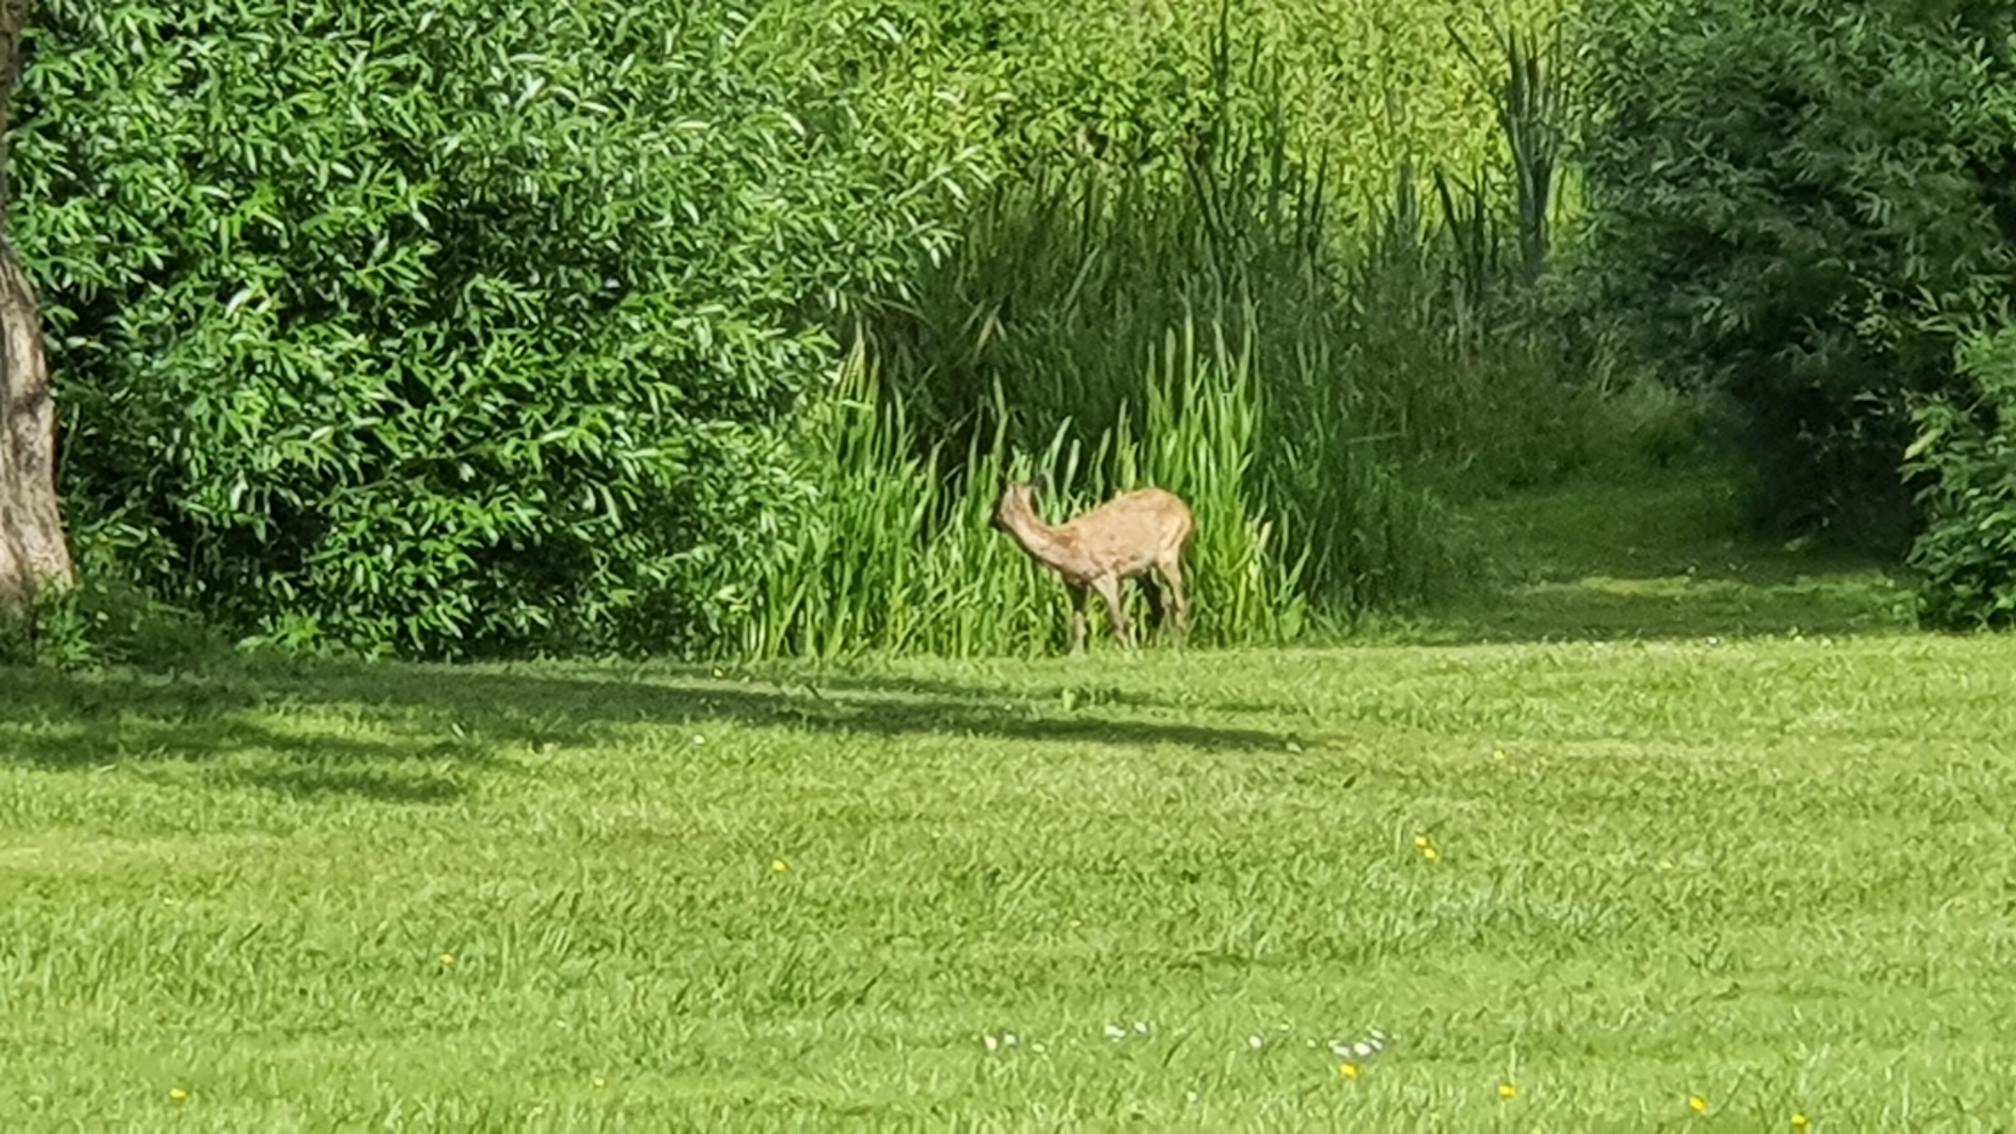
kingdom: Animalia
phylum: Chordata
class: Mammalia
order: Artiodactyla
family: Cervidae
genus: Capreolus
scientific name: Capreolus capreolus
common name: Rådyr
